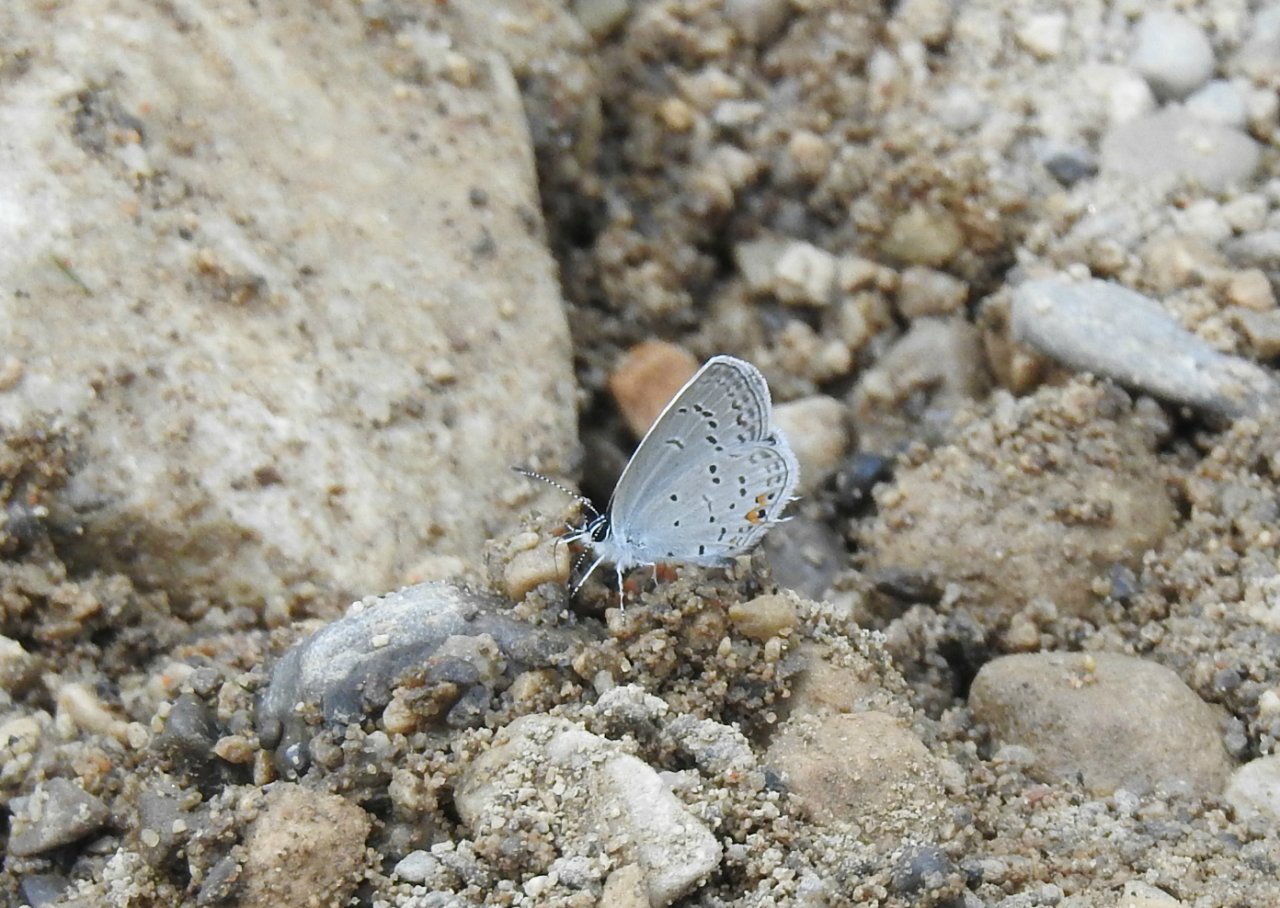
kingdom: Animalia
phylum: Arthropoda
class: Insecta
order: Lepidoptera
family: Lycaenidae
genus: Elkalyce
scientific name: Elkalyce comyntas
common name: Eastern Tailed-Blue
